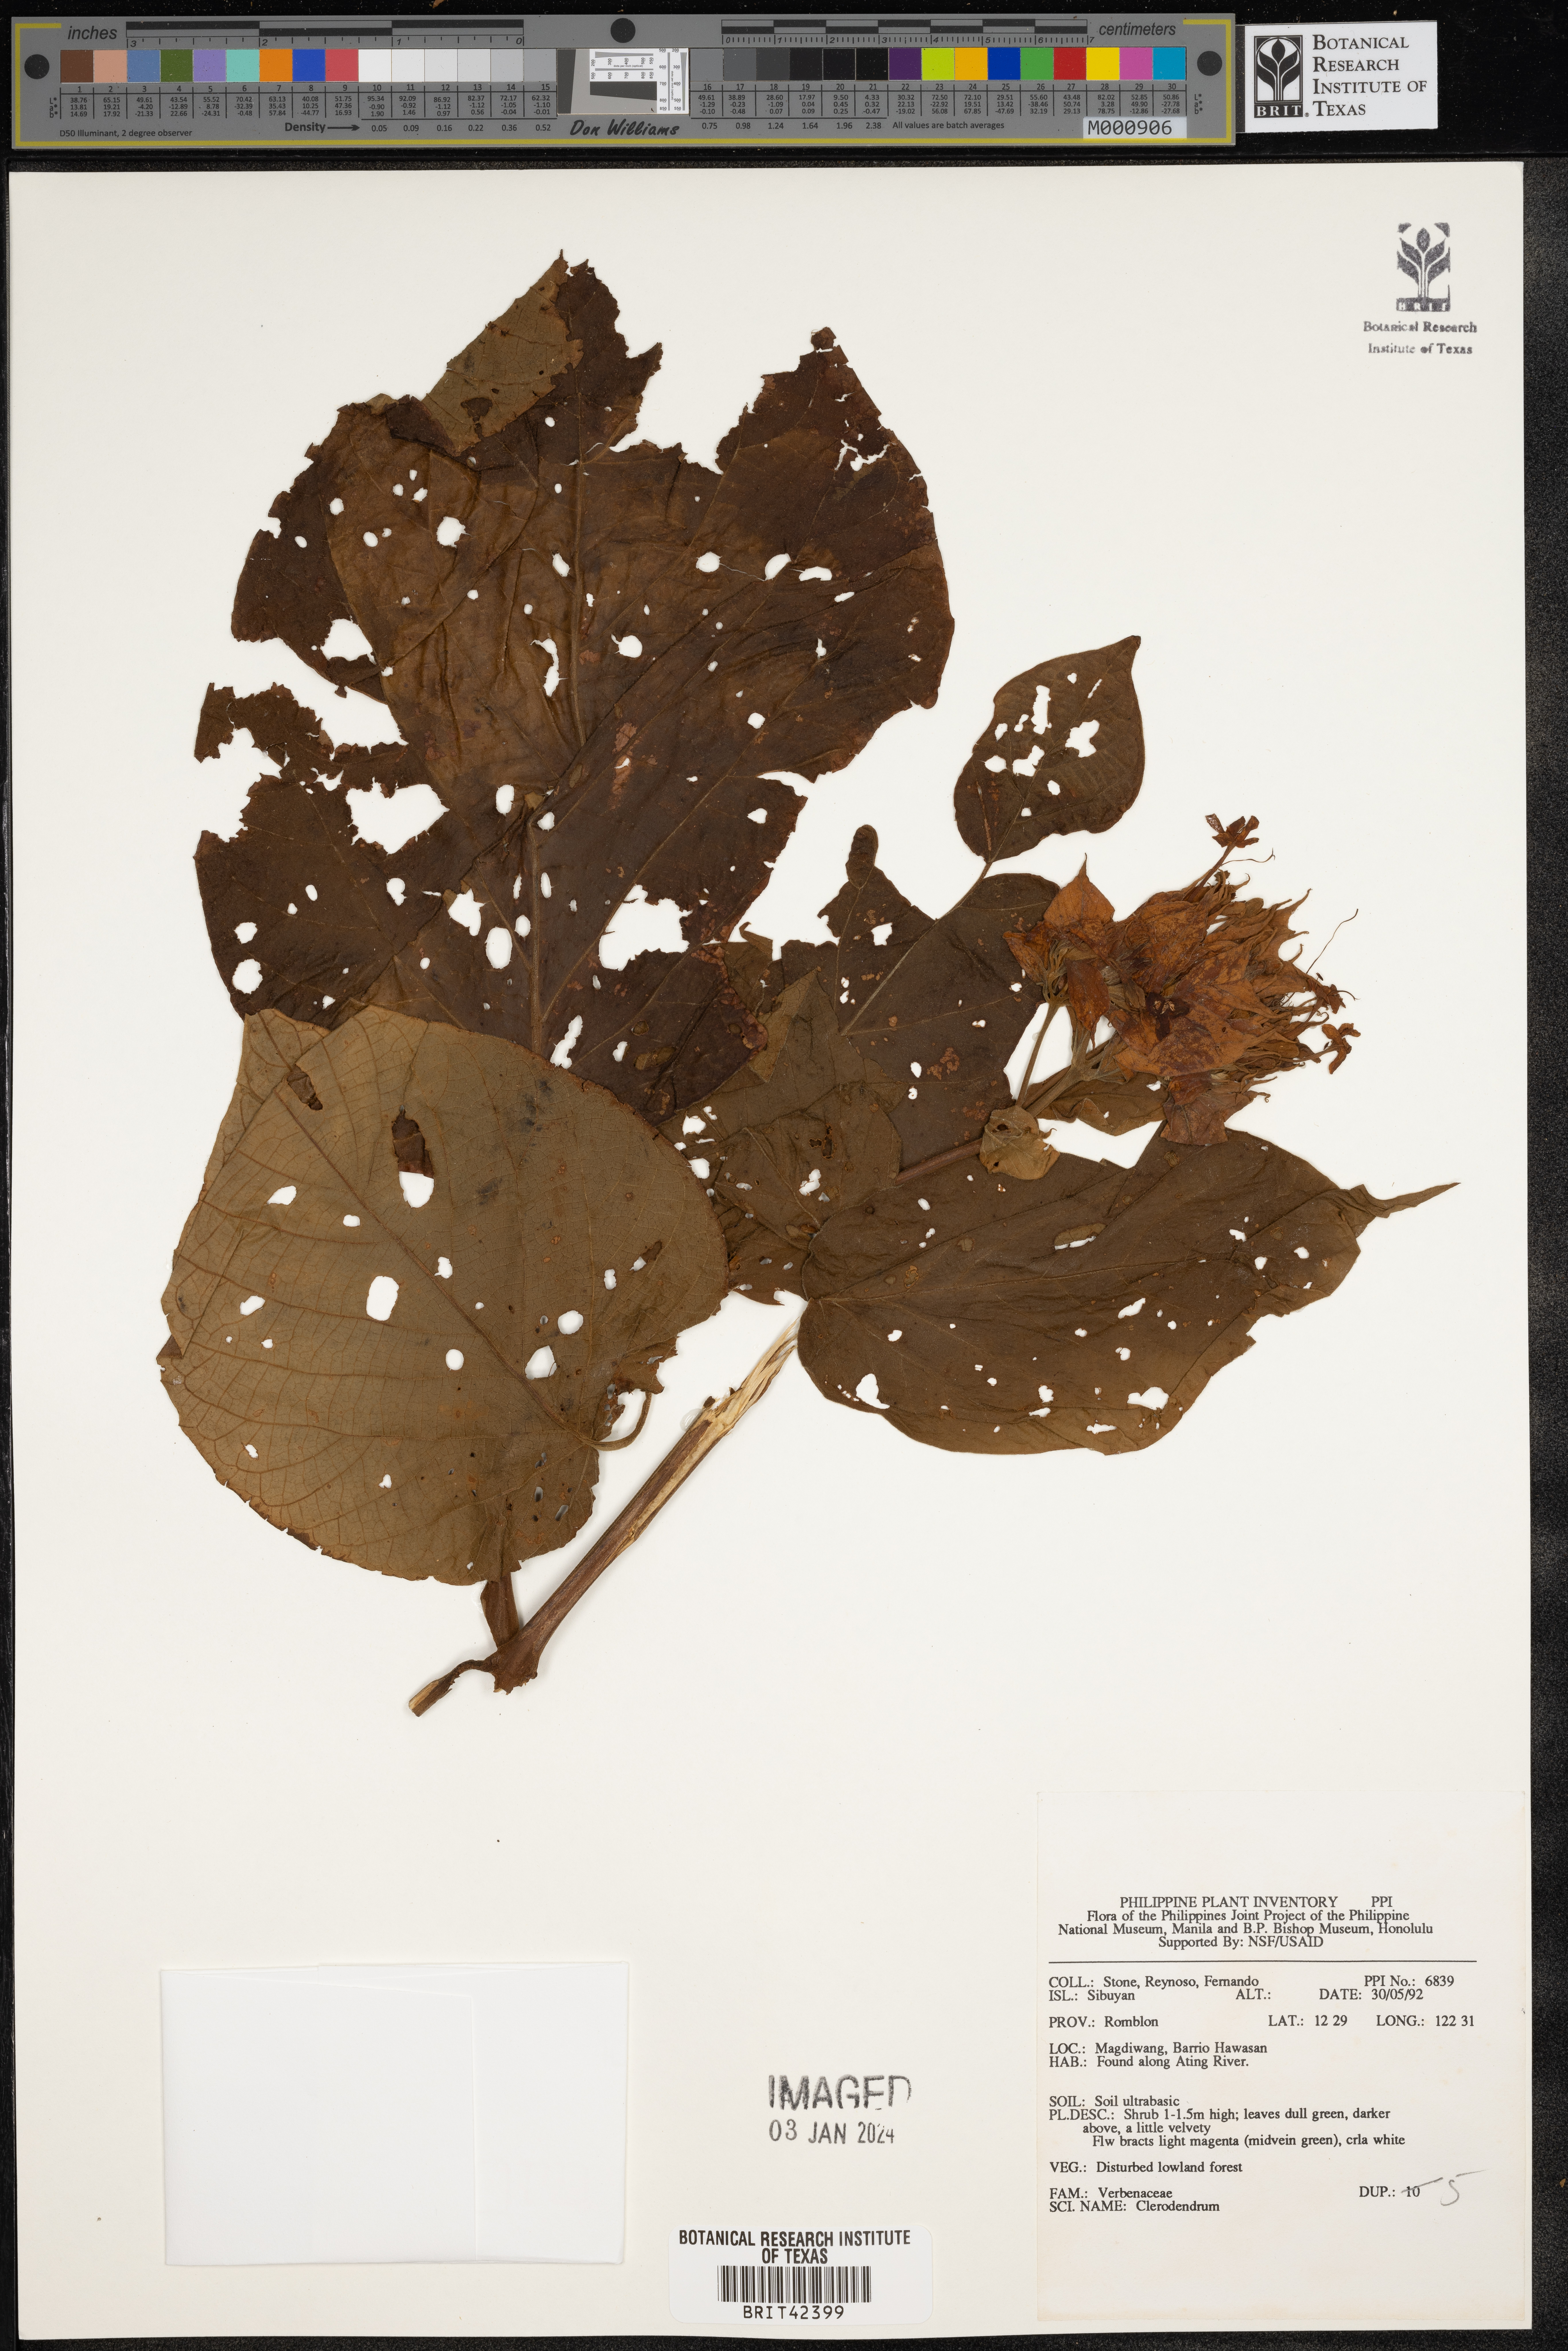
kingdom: Plantae
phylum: Tracheophyta
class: Magnoliopsida
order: Lamiales
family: Lamiaceae
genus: Clerodendrum
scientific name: Clerodendrum
